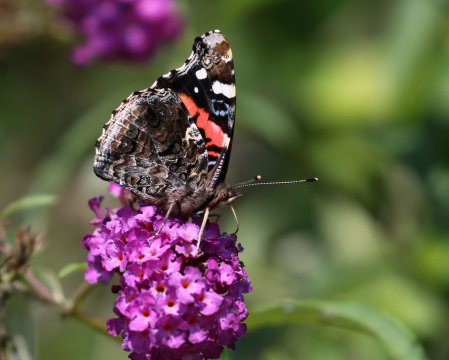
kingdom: Animalia
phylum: Arthropoda
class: Insecta
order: Lepidoptera
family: Nymphalidae
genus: Vanessa
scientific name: Vanessa atalanta
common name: Red Admiral
